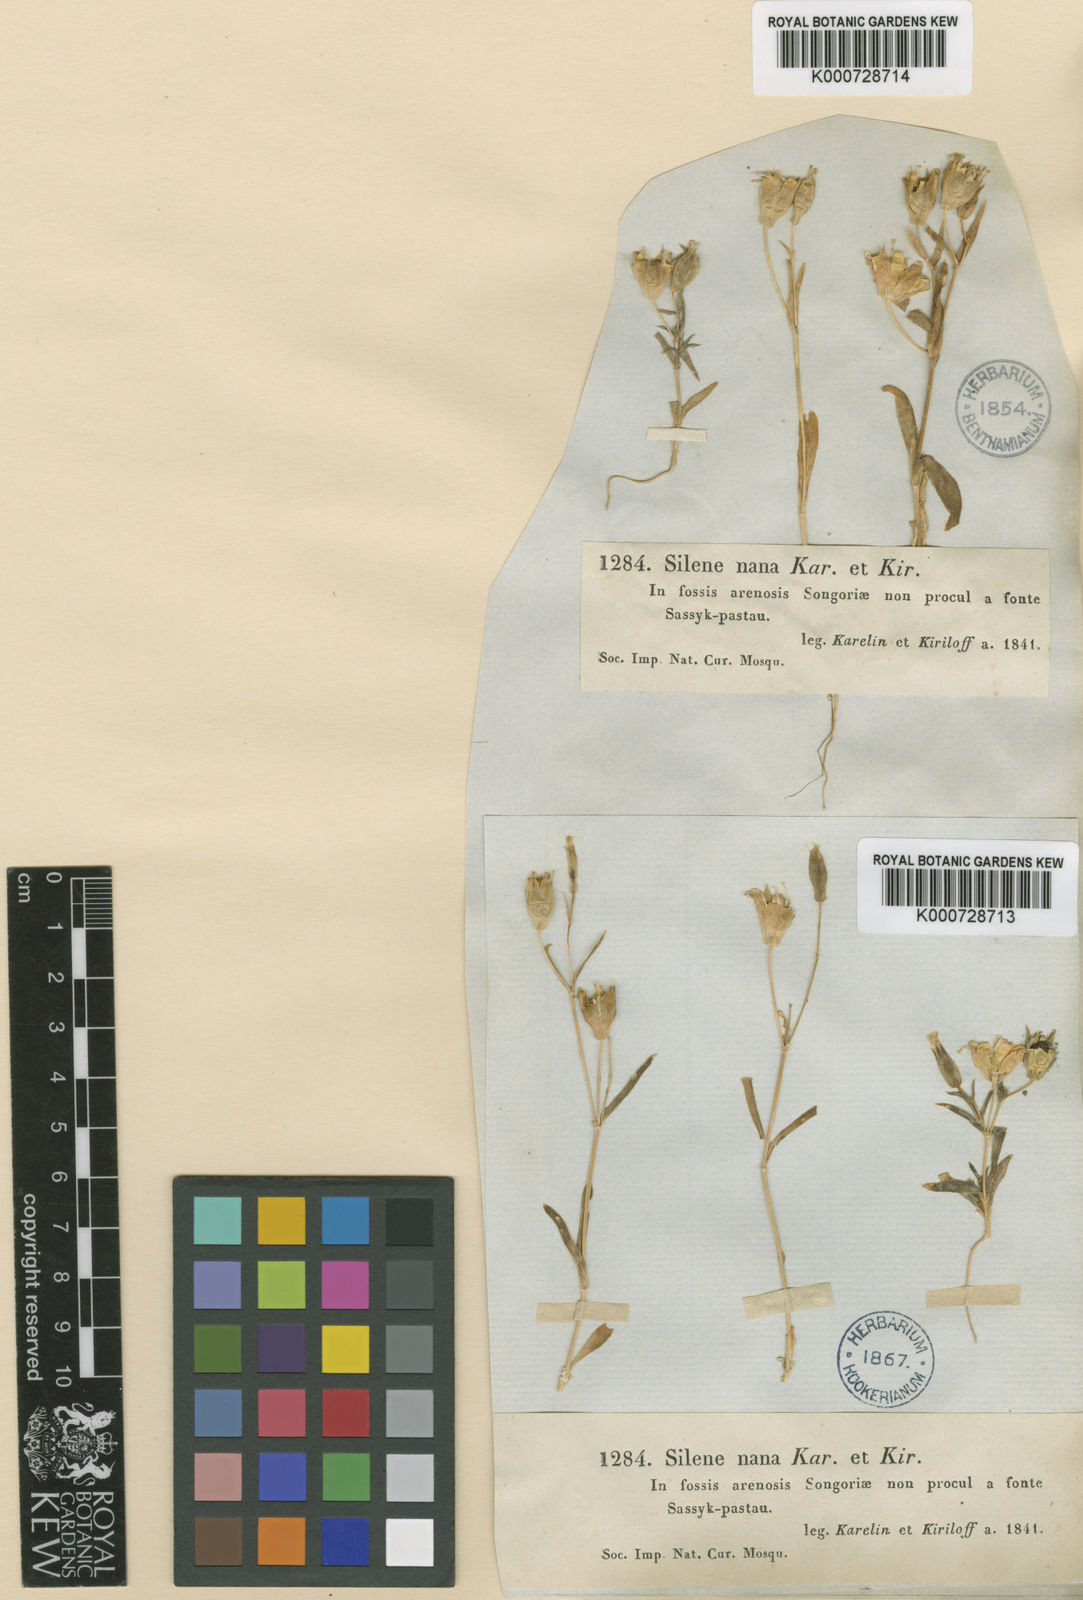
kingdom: Plantae
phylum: Tracheophyta
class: Magnoliopsida
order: Caryophyllales
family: Caryophyllaceae
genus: Silene
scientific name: Silene nana
